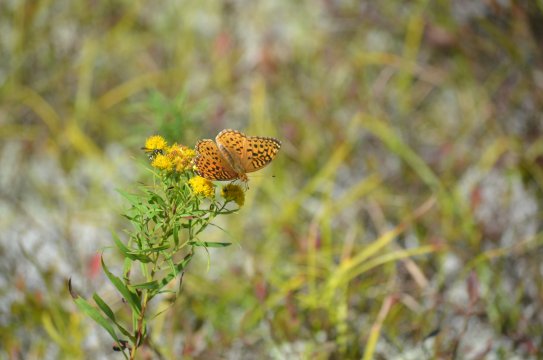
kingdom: Animalia
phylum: Arthropoda
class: Insecta
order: Lepidoptera
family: Nymphalidae
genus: Speyeria
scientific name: Speyeria aphrodite
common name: Aphrodite Fritillary
